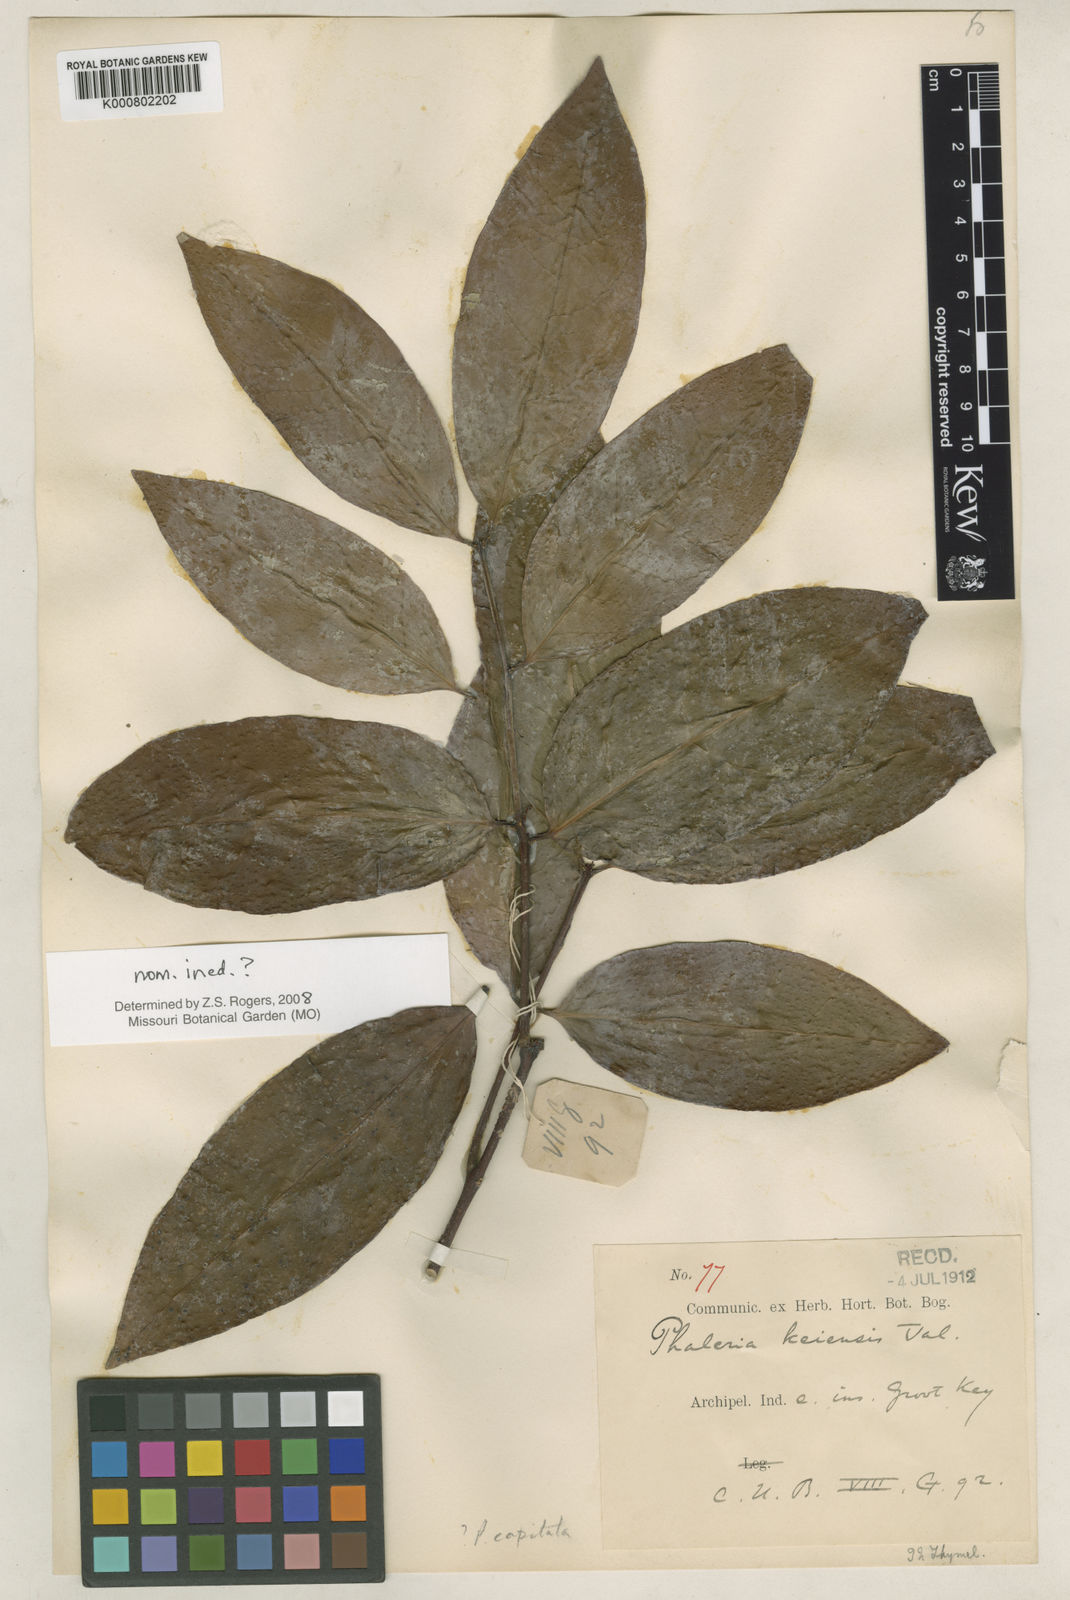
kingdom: Plantae
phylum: Tracheophyta
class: Magnoliopsida
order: Malvales
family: Thymelaeaceae
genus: Phaleria
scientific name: Phaleria capitata
